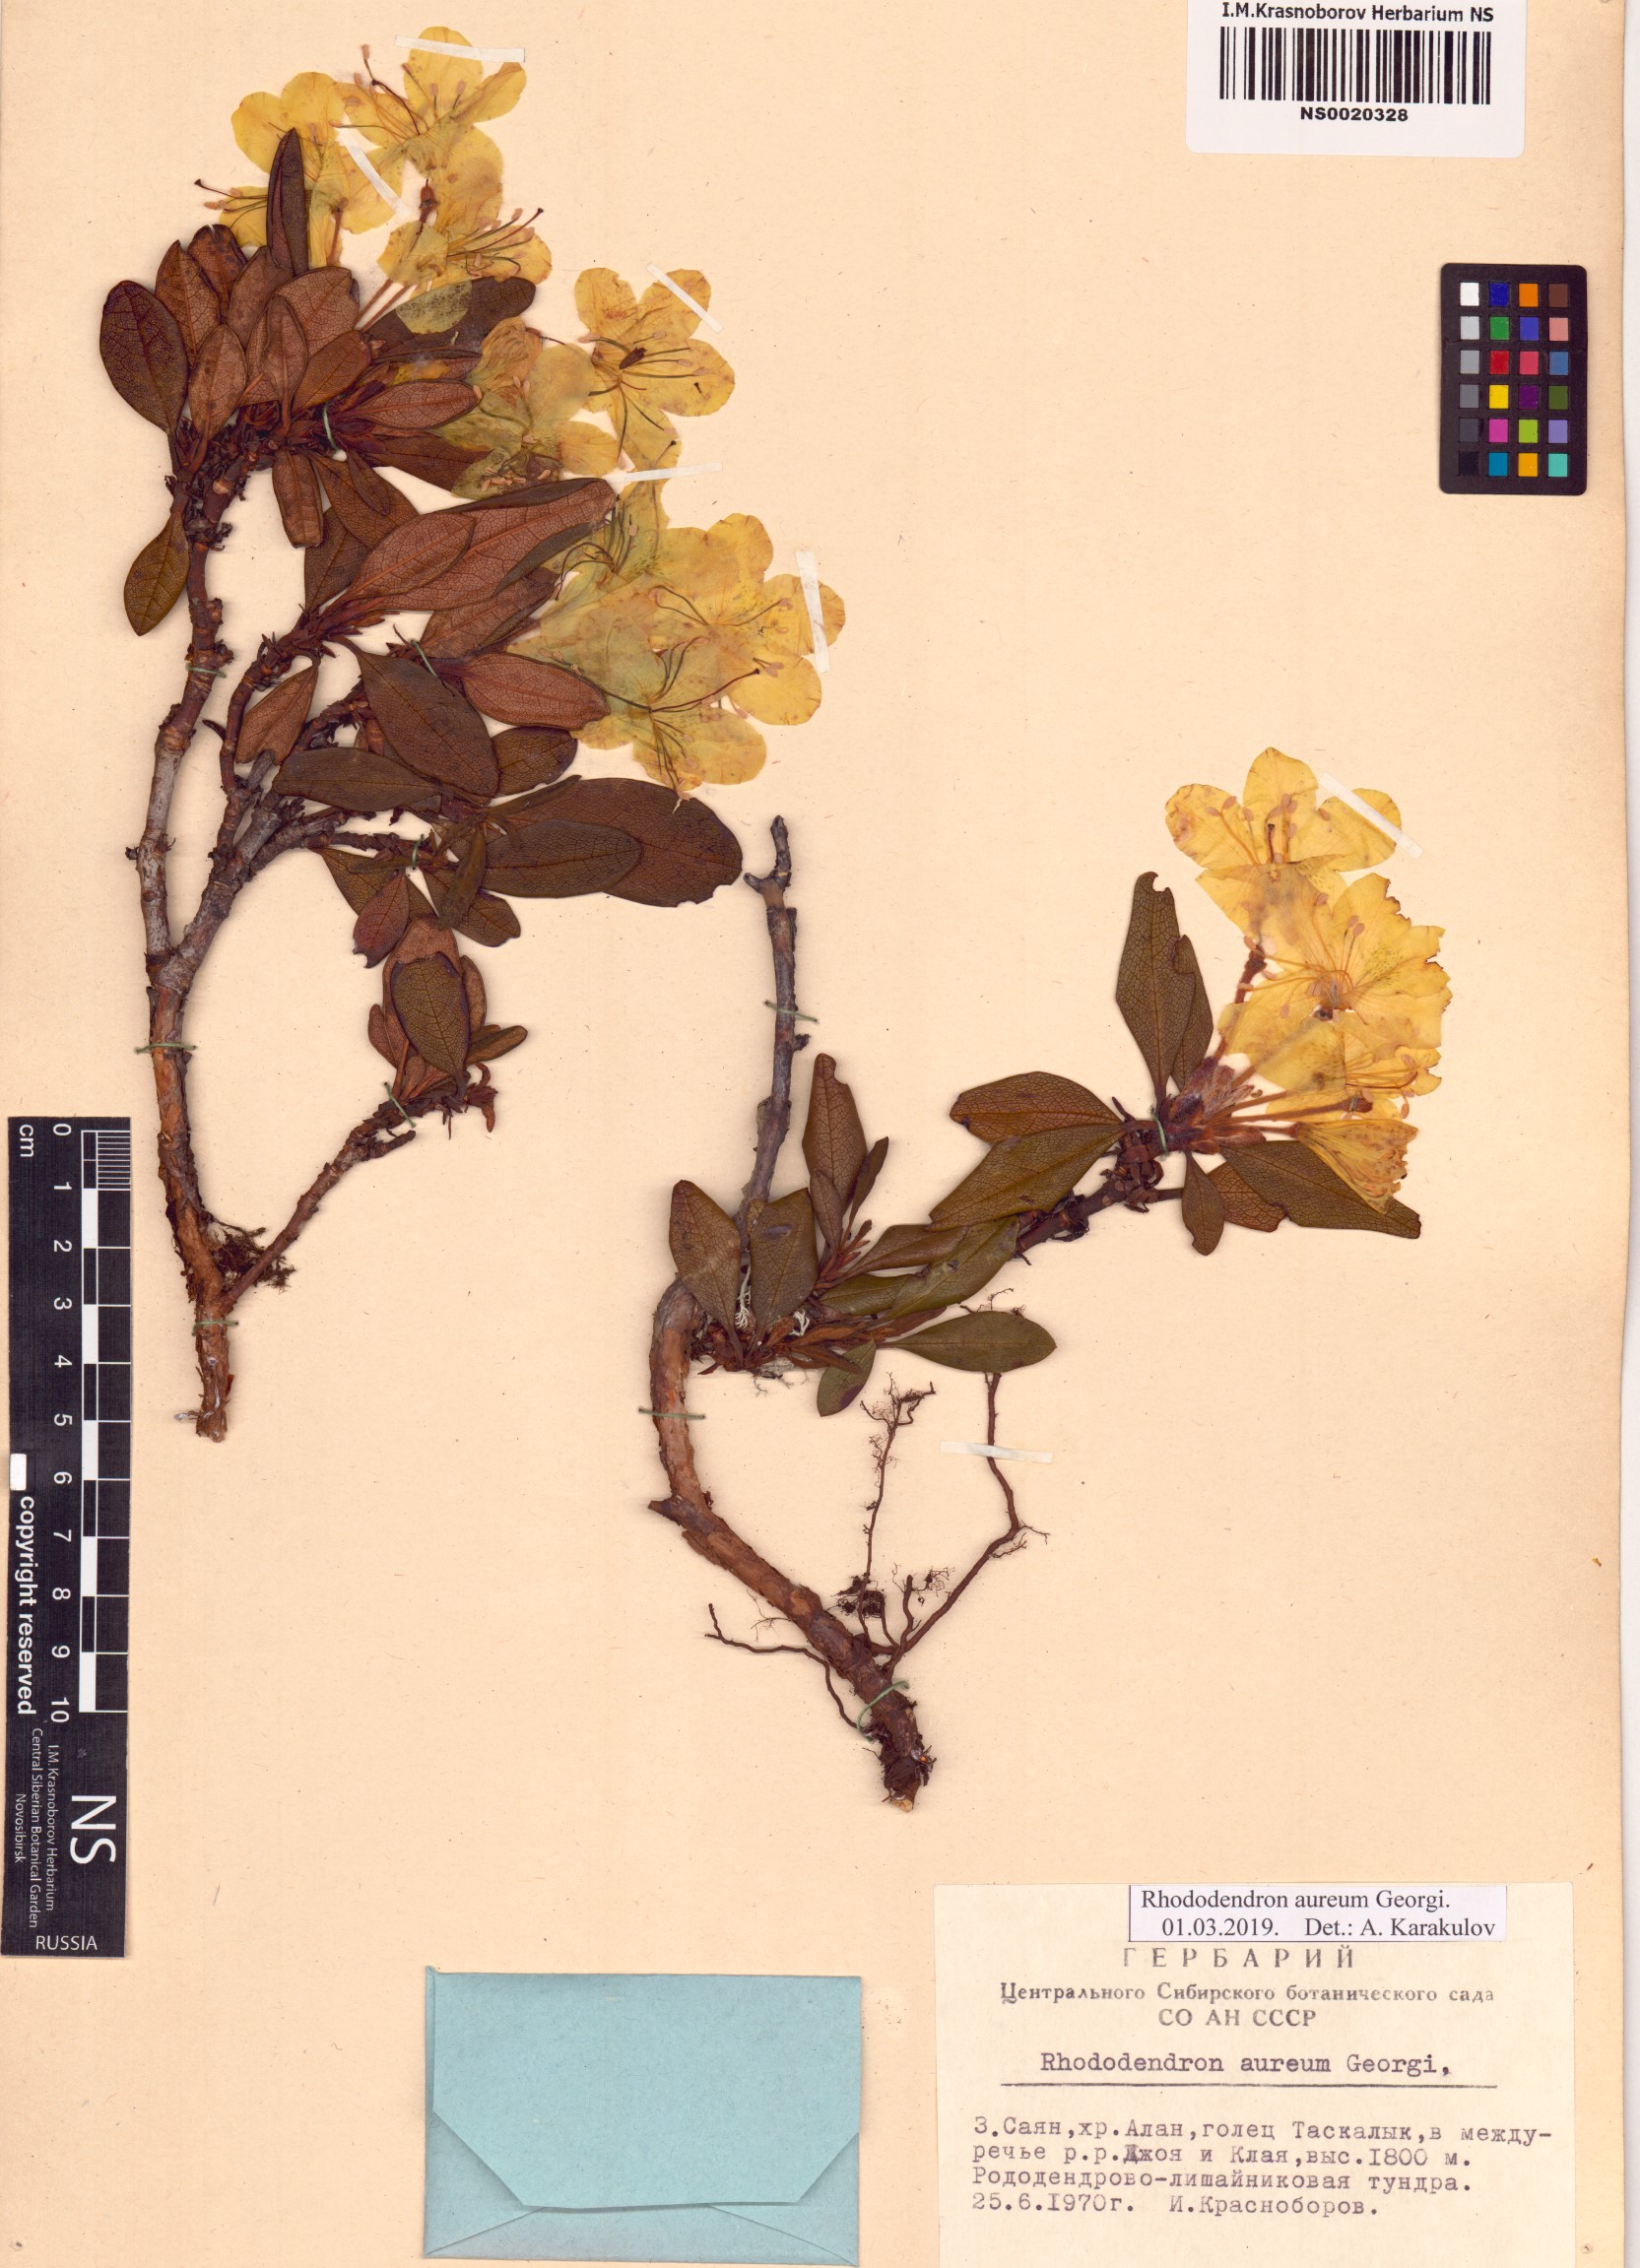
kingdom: Plantae
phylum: Tracheophyta
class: Magnoliopsida
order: Ericales
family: Ericaceae
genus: Rhododendron
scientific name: Rhododendron aureum
